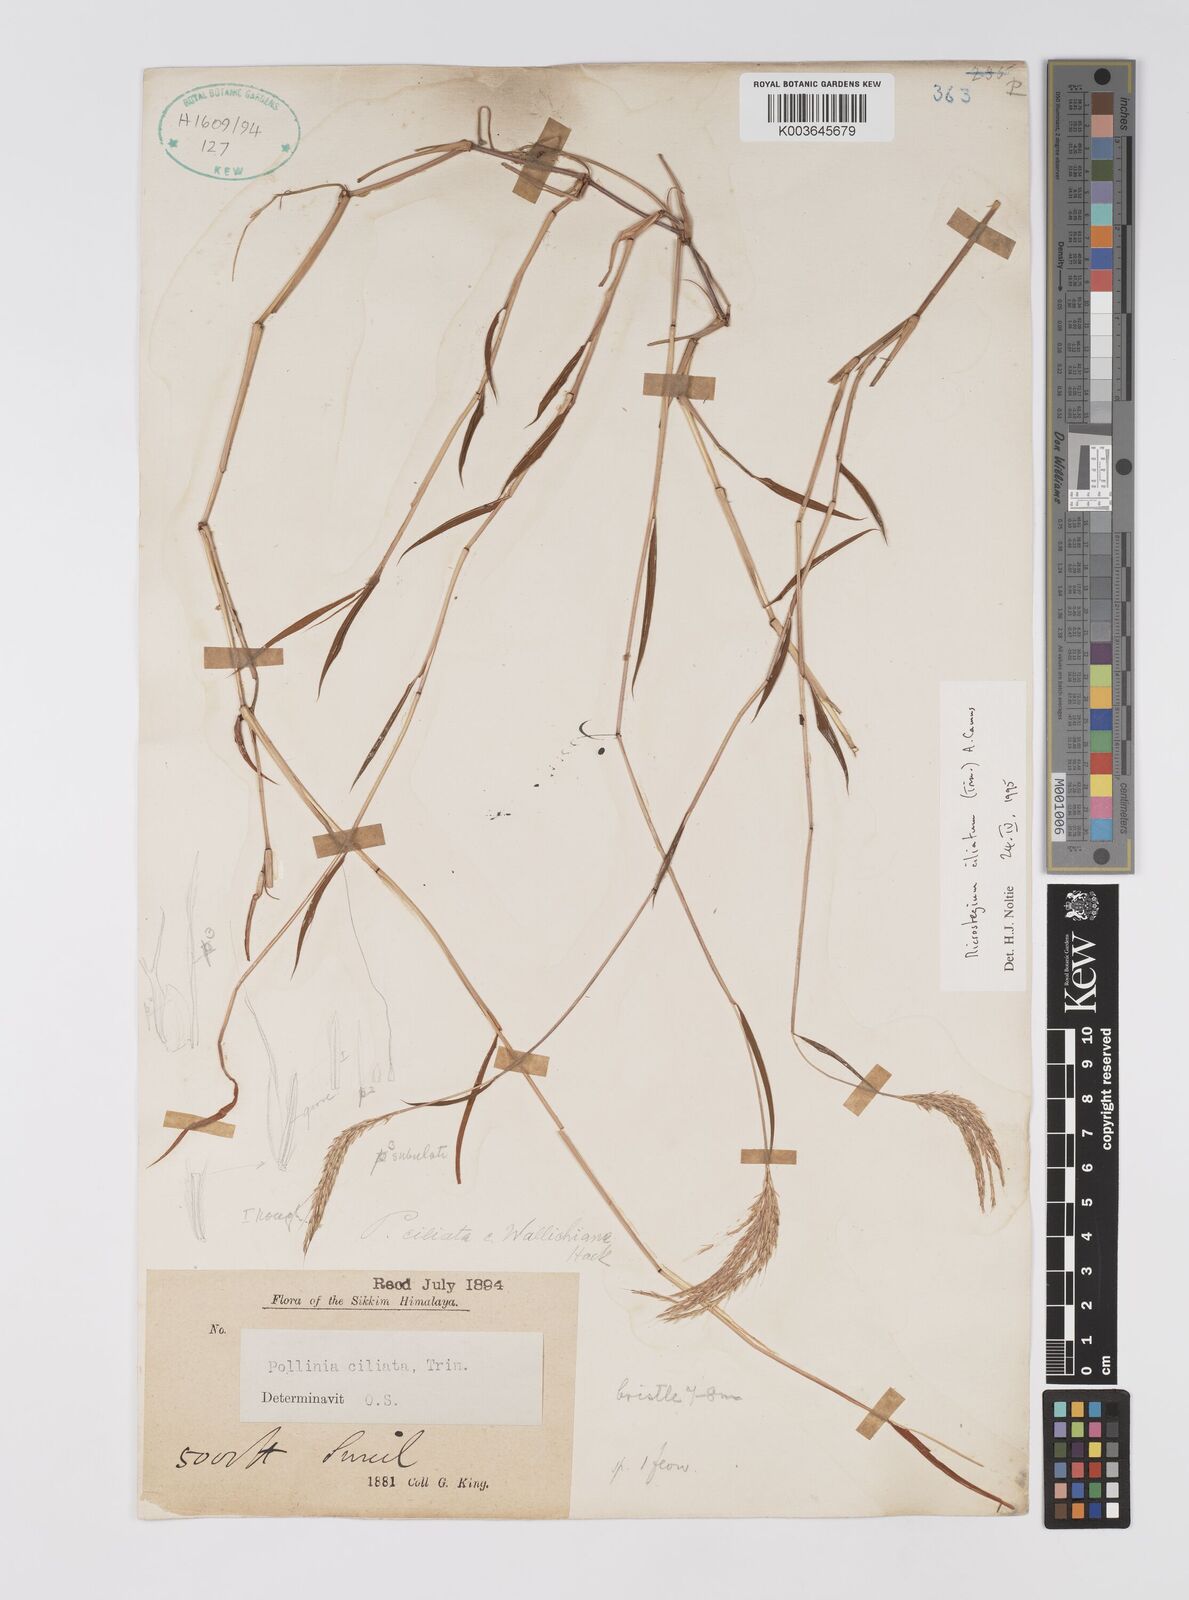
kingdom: Plantae
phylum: Tracheophyta
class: Liliopsida
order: Poales
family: Poaceae
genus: Microstegium
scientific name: Microstegium fasciculatum
